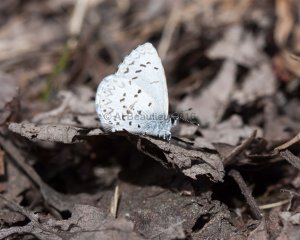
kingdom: Animalia
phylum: Arthropoda
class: Insecta
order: Lepidoptera
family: Lycaenidae
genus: Celastrina
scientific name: Celastrina lucia
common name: Northern Spring Azure
